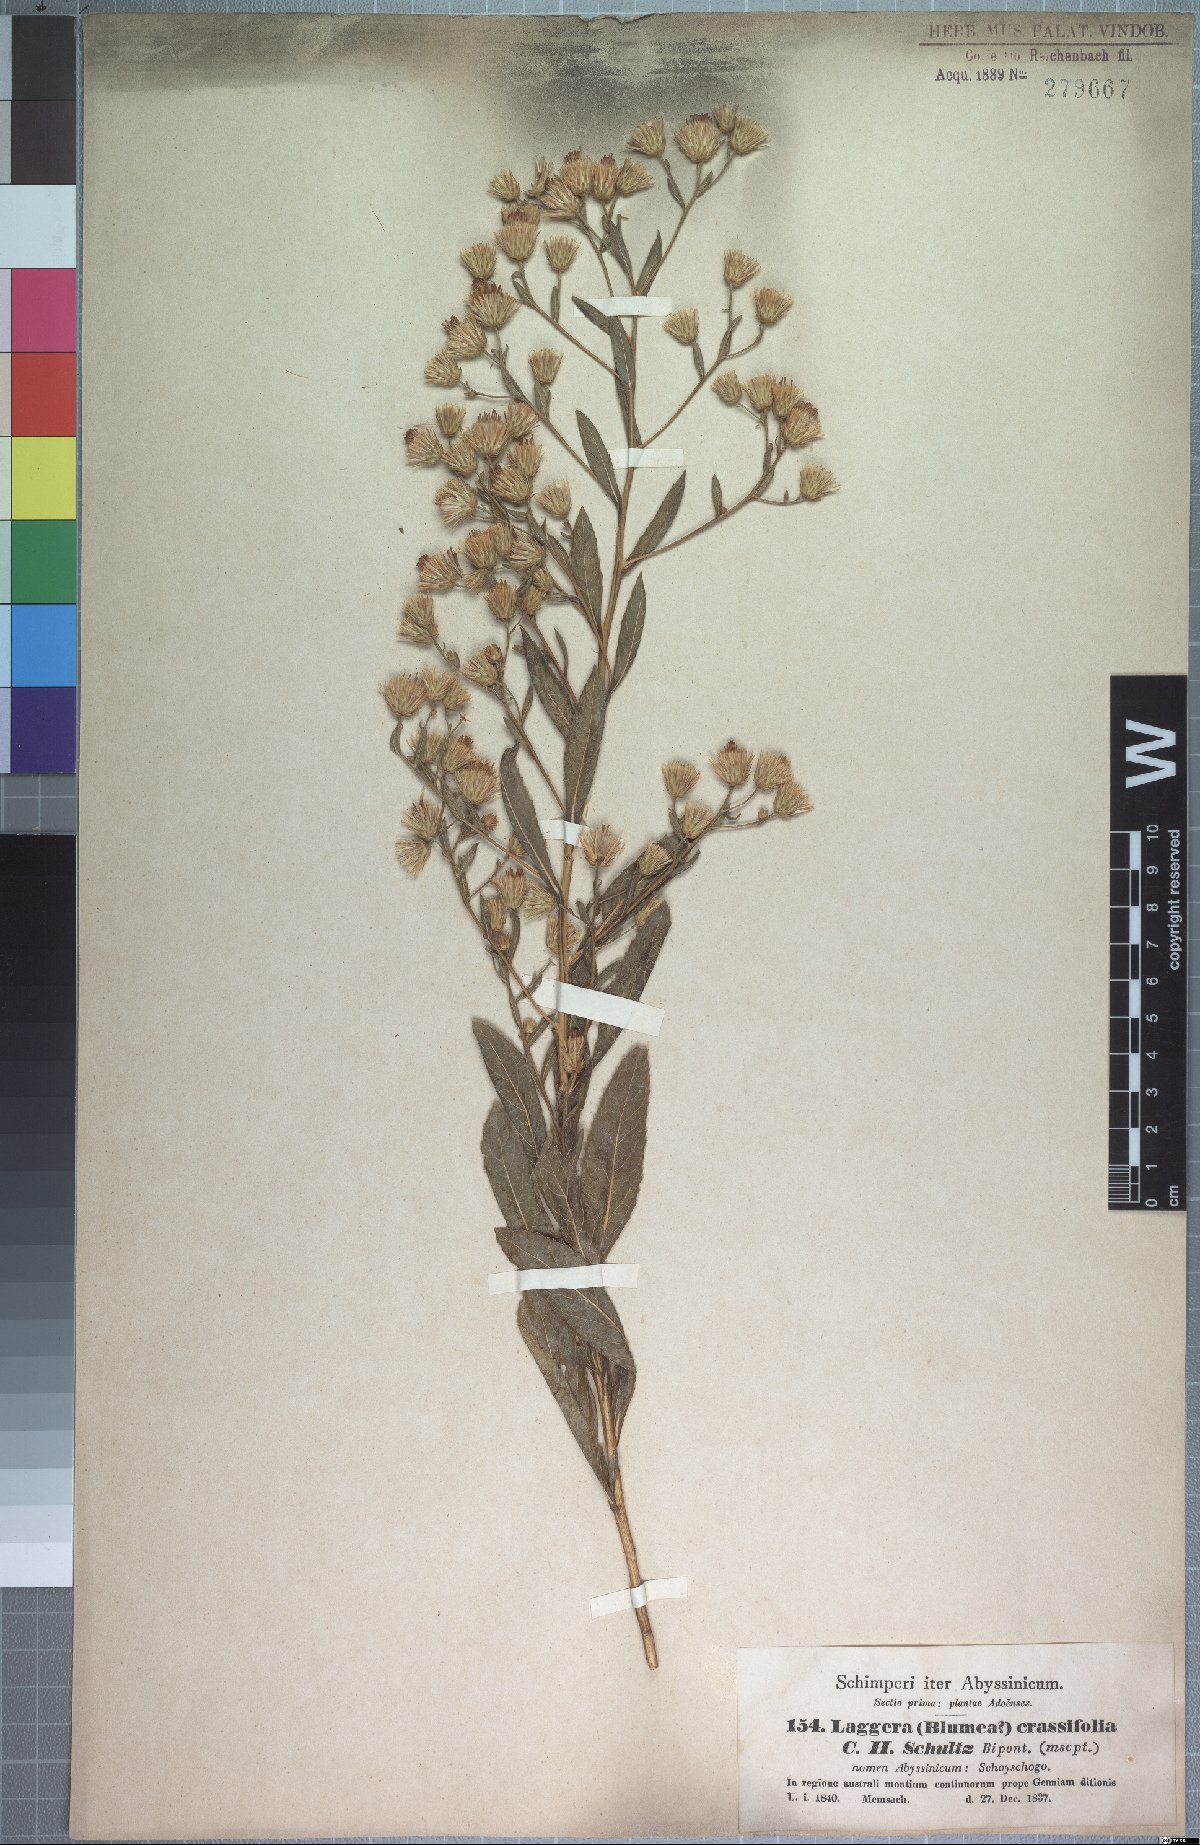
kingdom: Plantae
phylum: Tracheophyta
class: Magnoliopsida
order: Asterales
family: Asteraceae
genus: Laggera
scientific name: Laggera crassifolia
